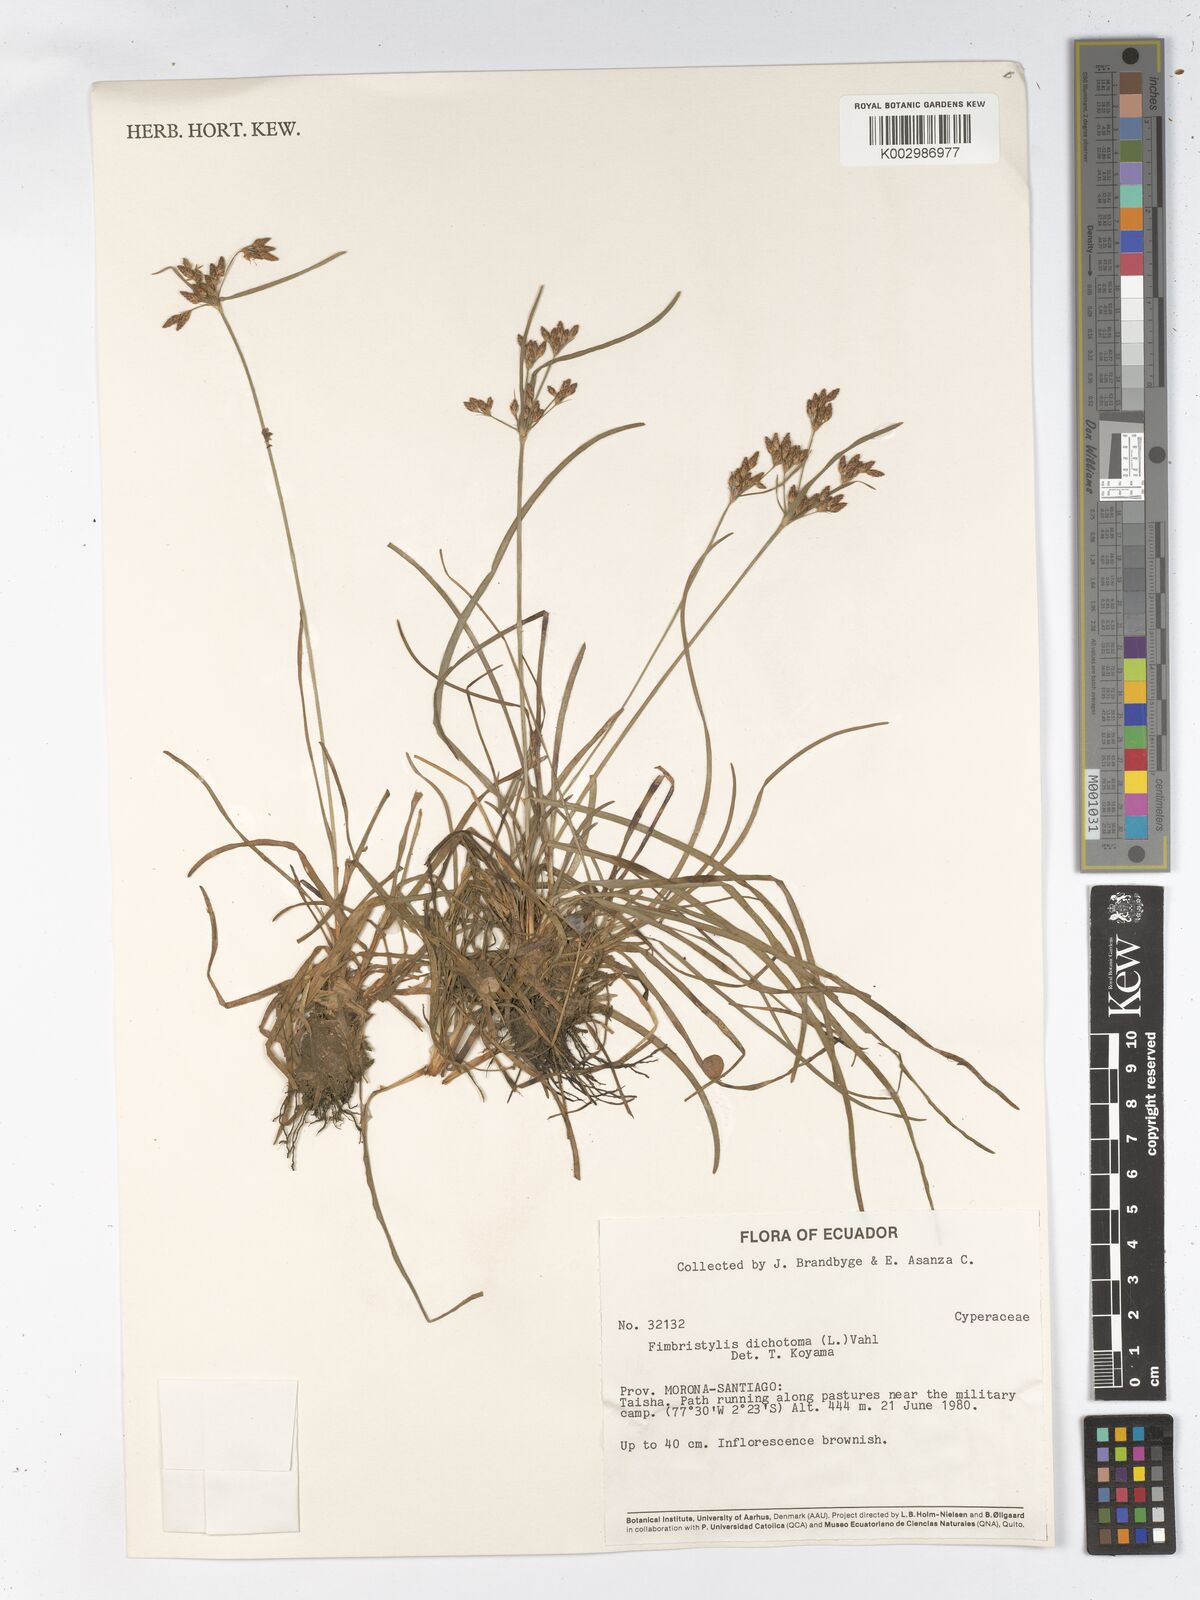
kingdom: Plantae
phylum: Tracheophyta
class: Liliopsida
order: Poales
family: Cyperaceae
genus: Fimbristylis
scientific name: Fimbristylis dichotoma
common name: Forked fimbry
